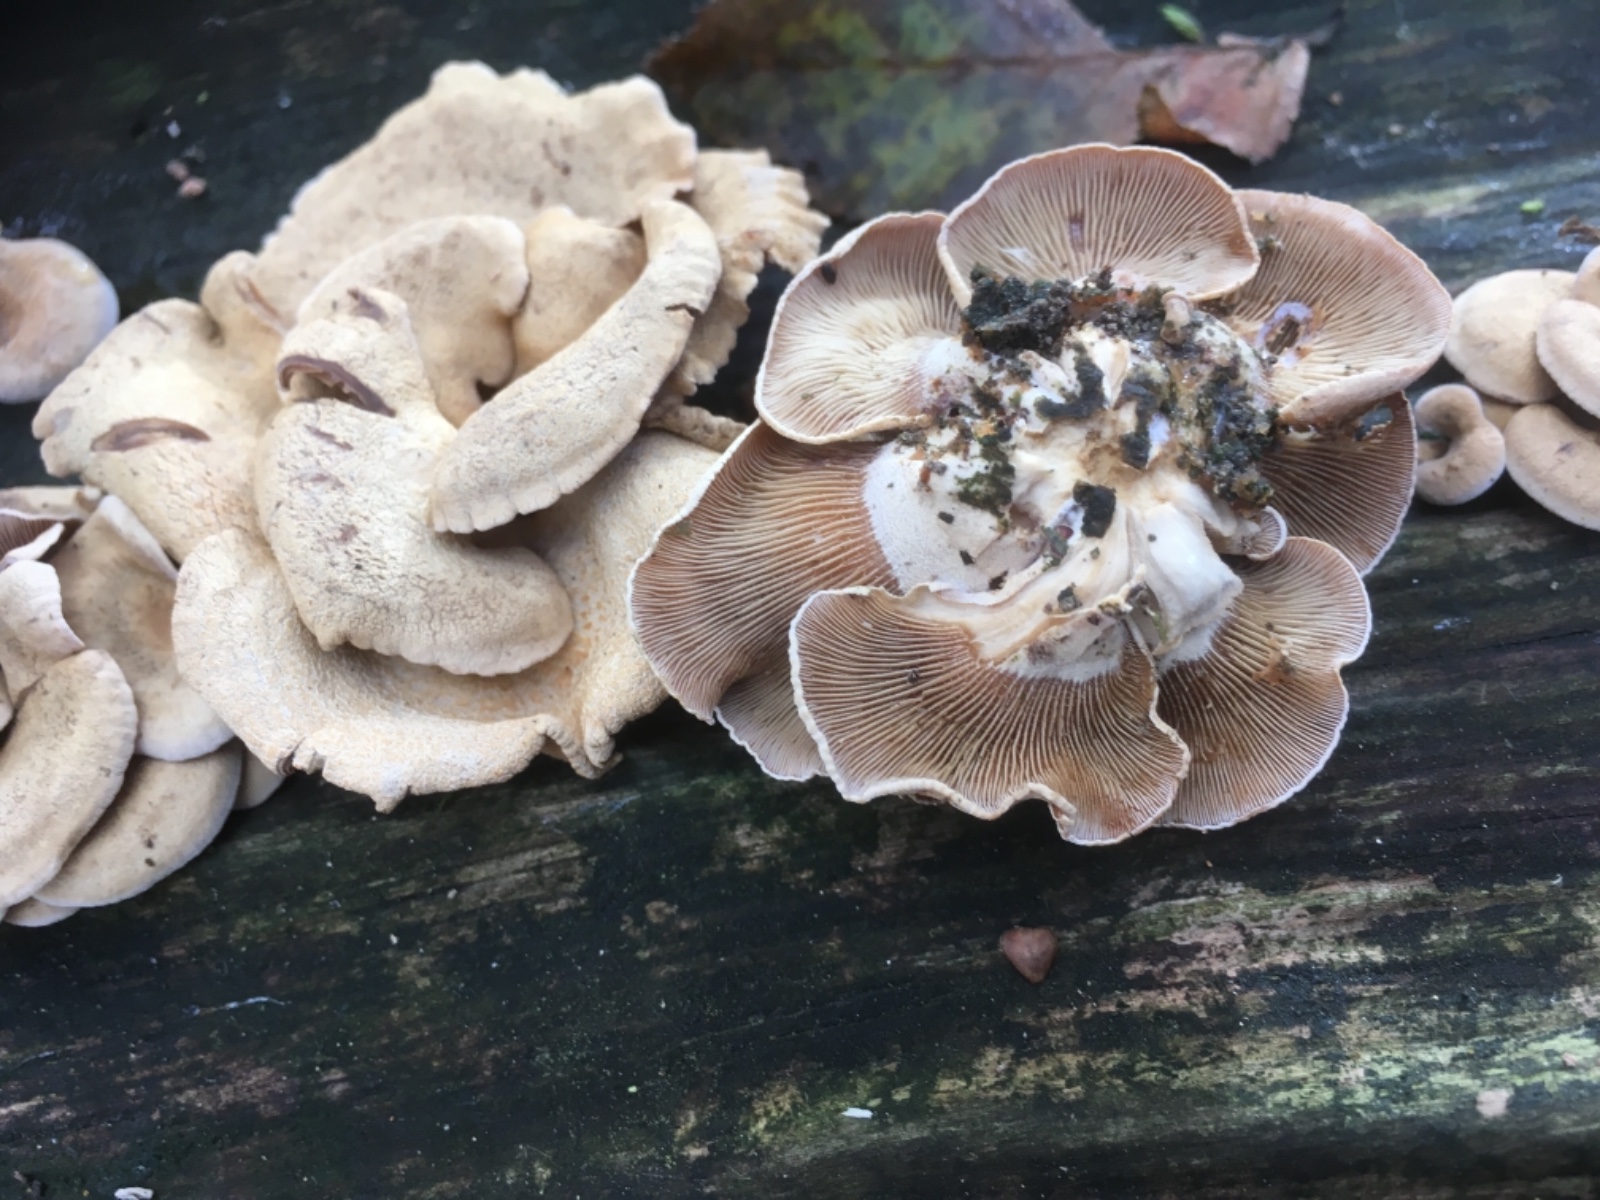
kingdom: Fungi
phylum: Basidiomycota
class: Agaricomycetes
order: Agaricales
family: Mycenaceae
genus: Panellus
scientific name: Panellus stipticus
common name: kliddet epaulethat
